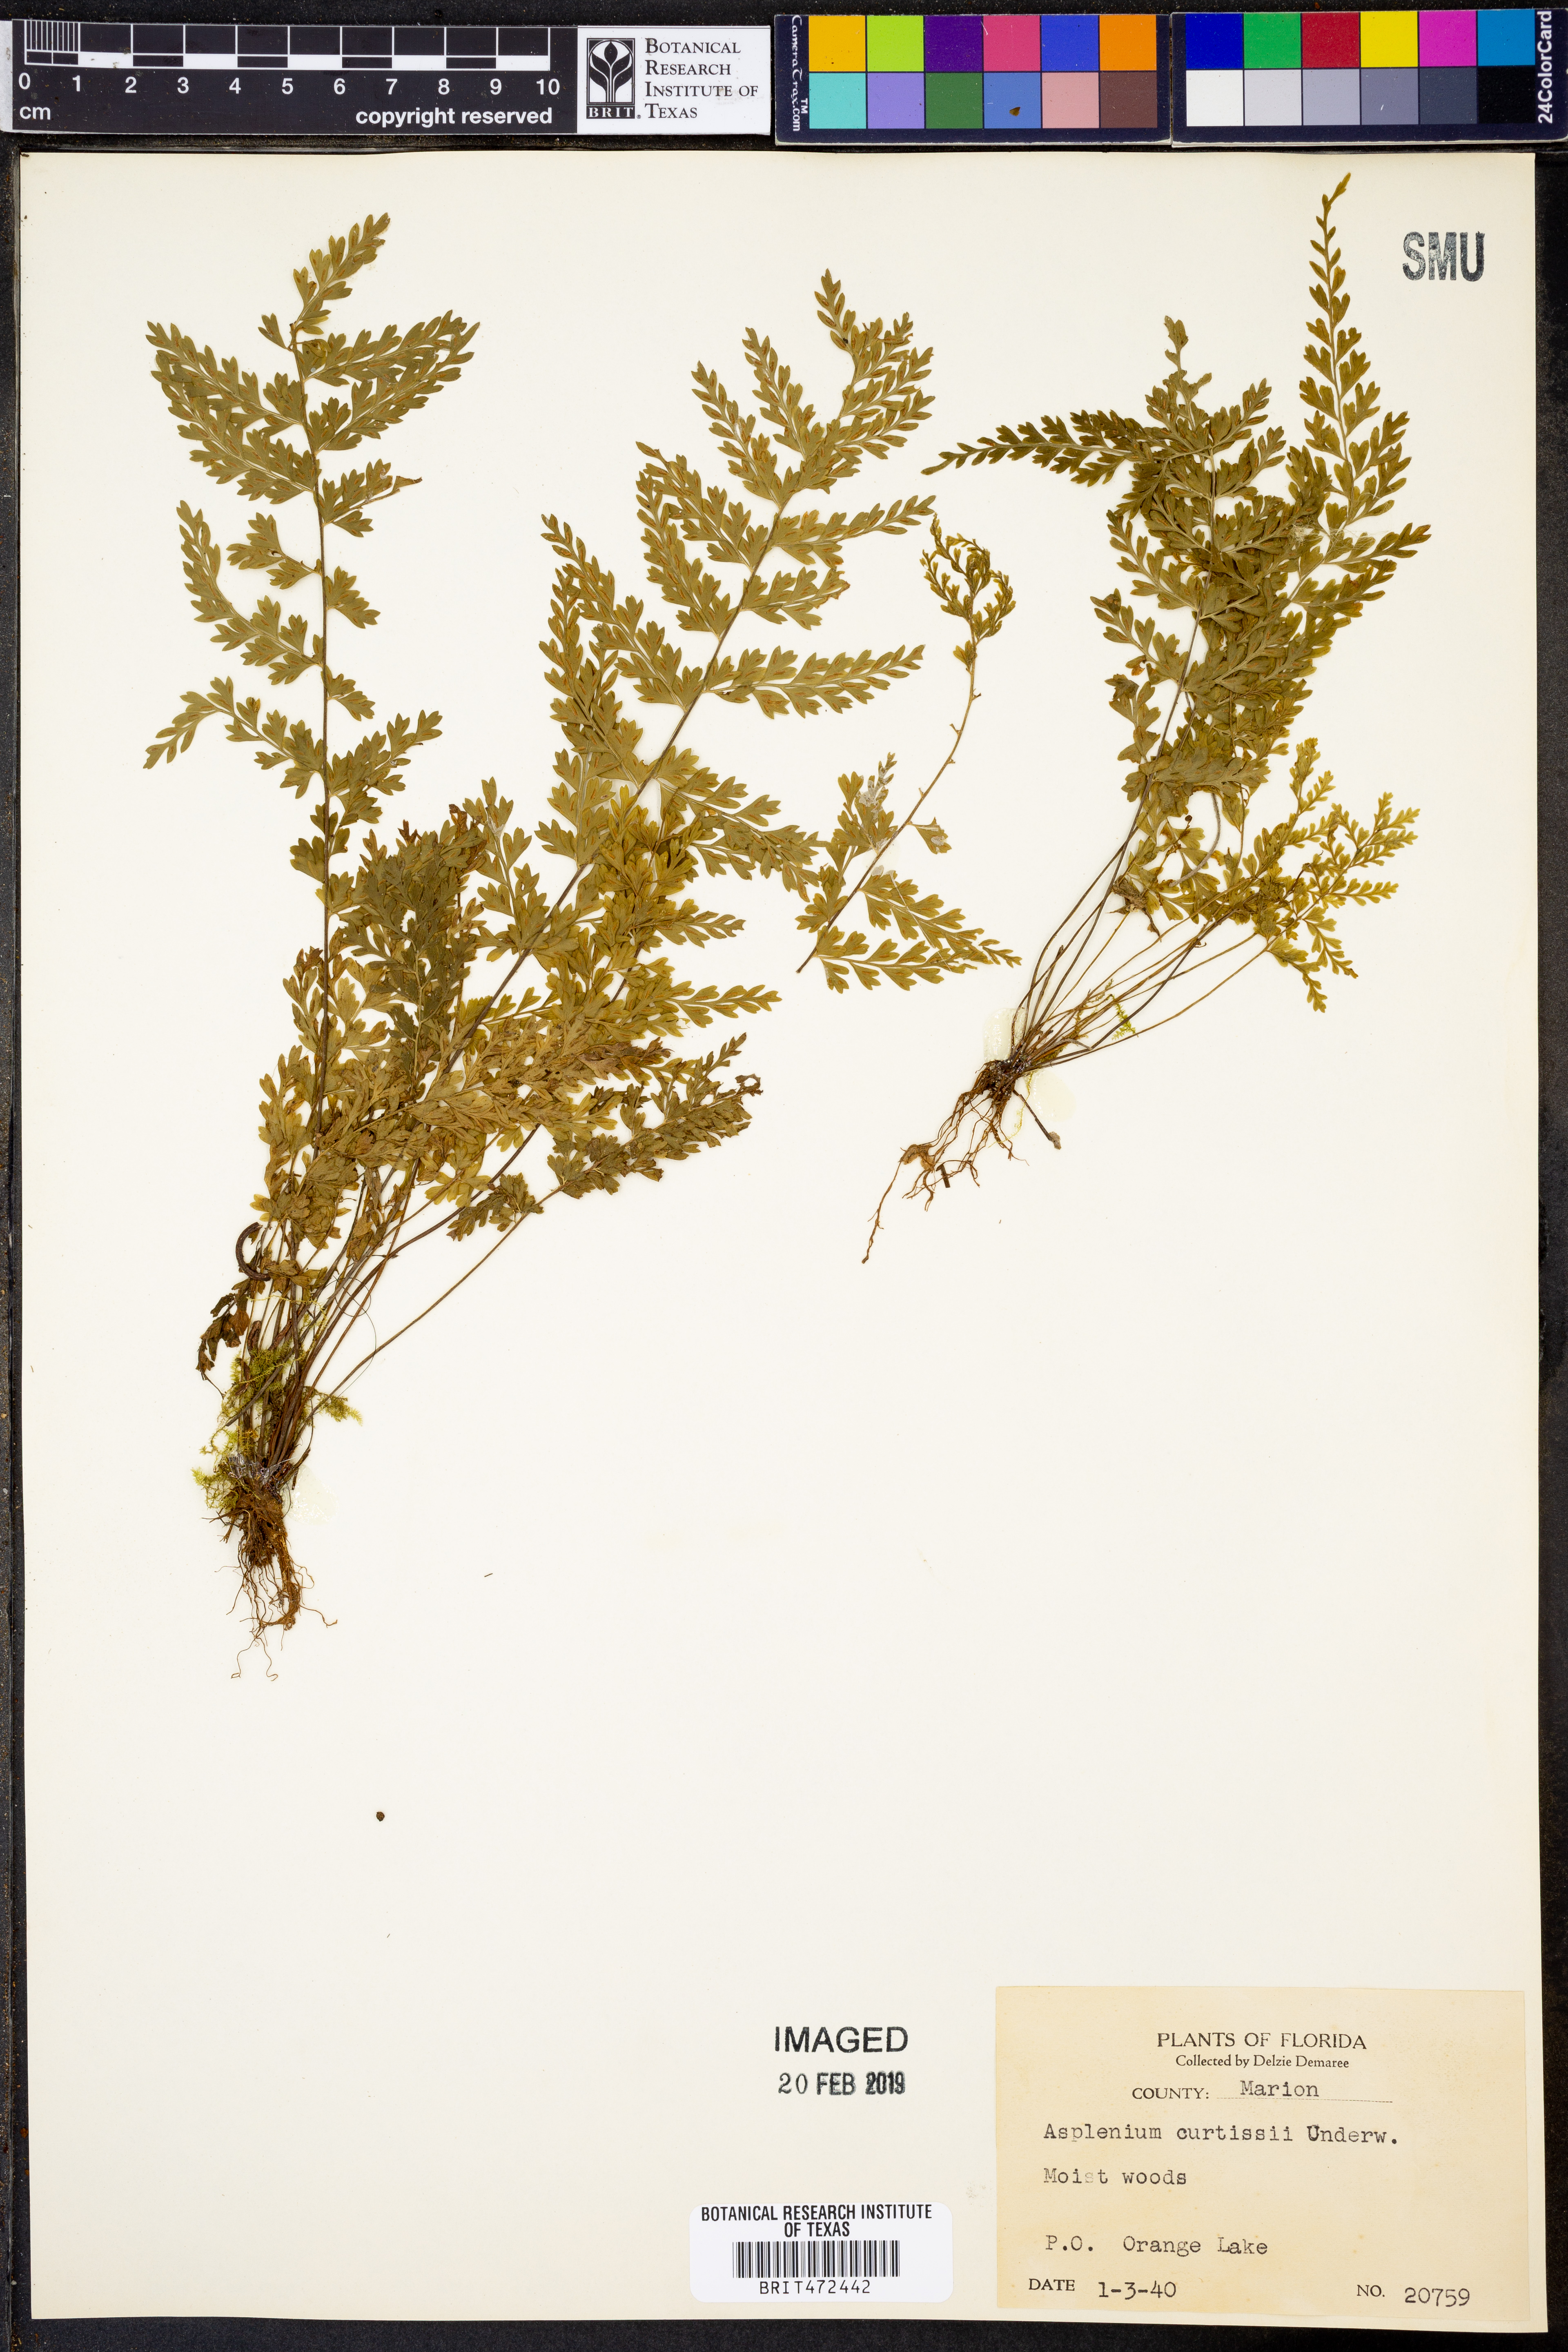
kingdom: Plantae
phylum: Tracheophyta
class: Polypodiopsida
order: Polypodiales
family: Aspleniaceae
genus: Asplenium
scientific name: Asplenium curtissii
